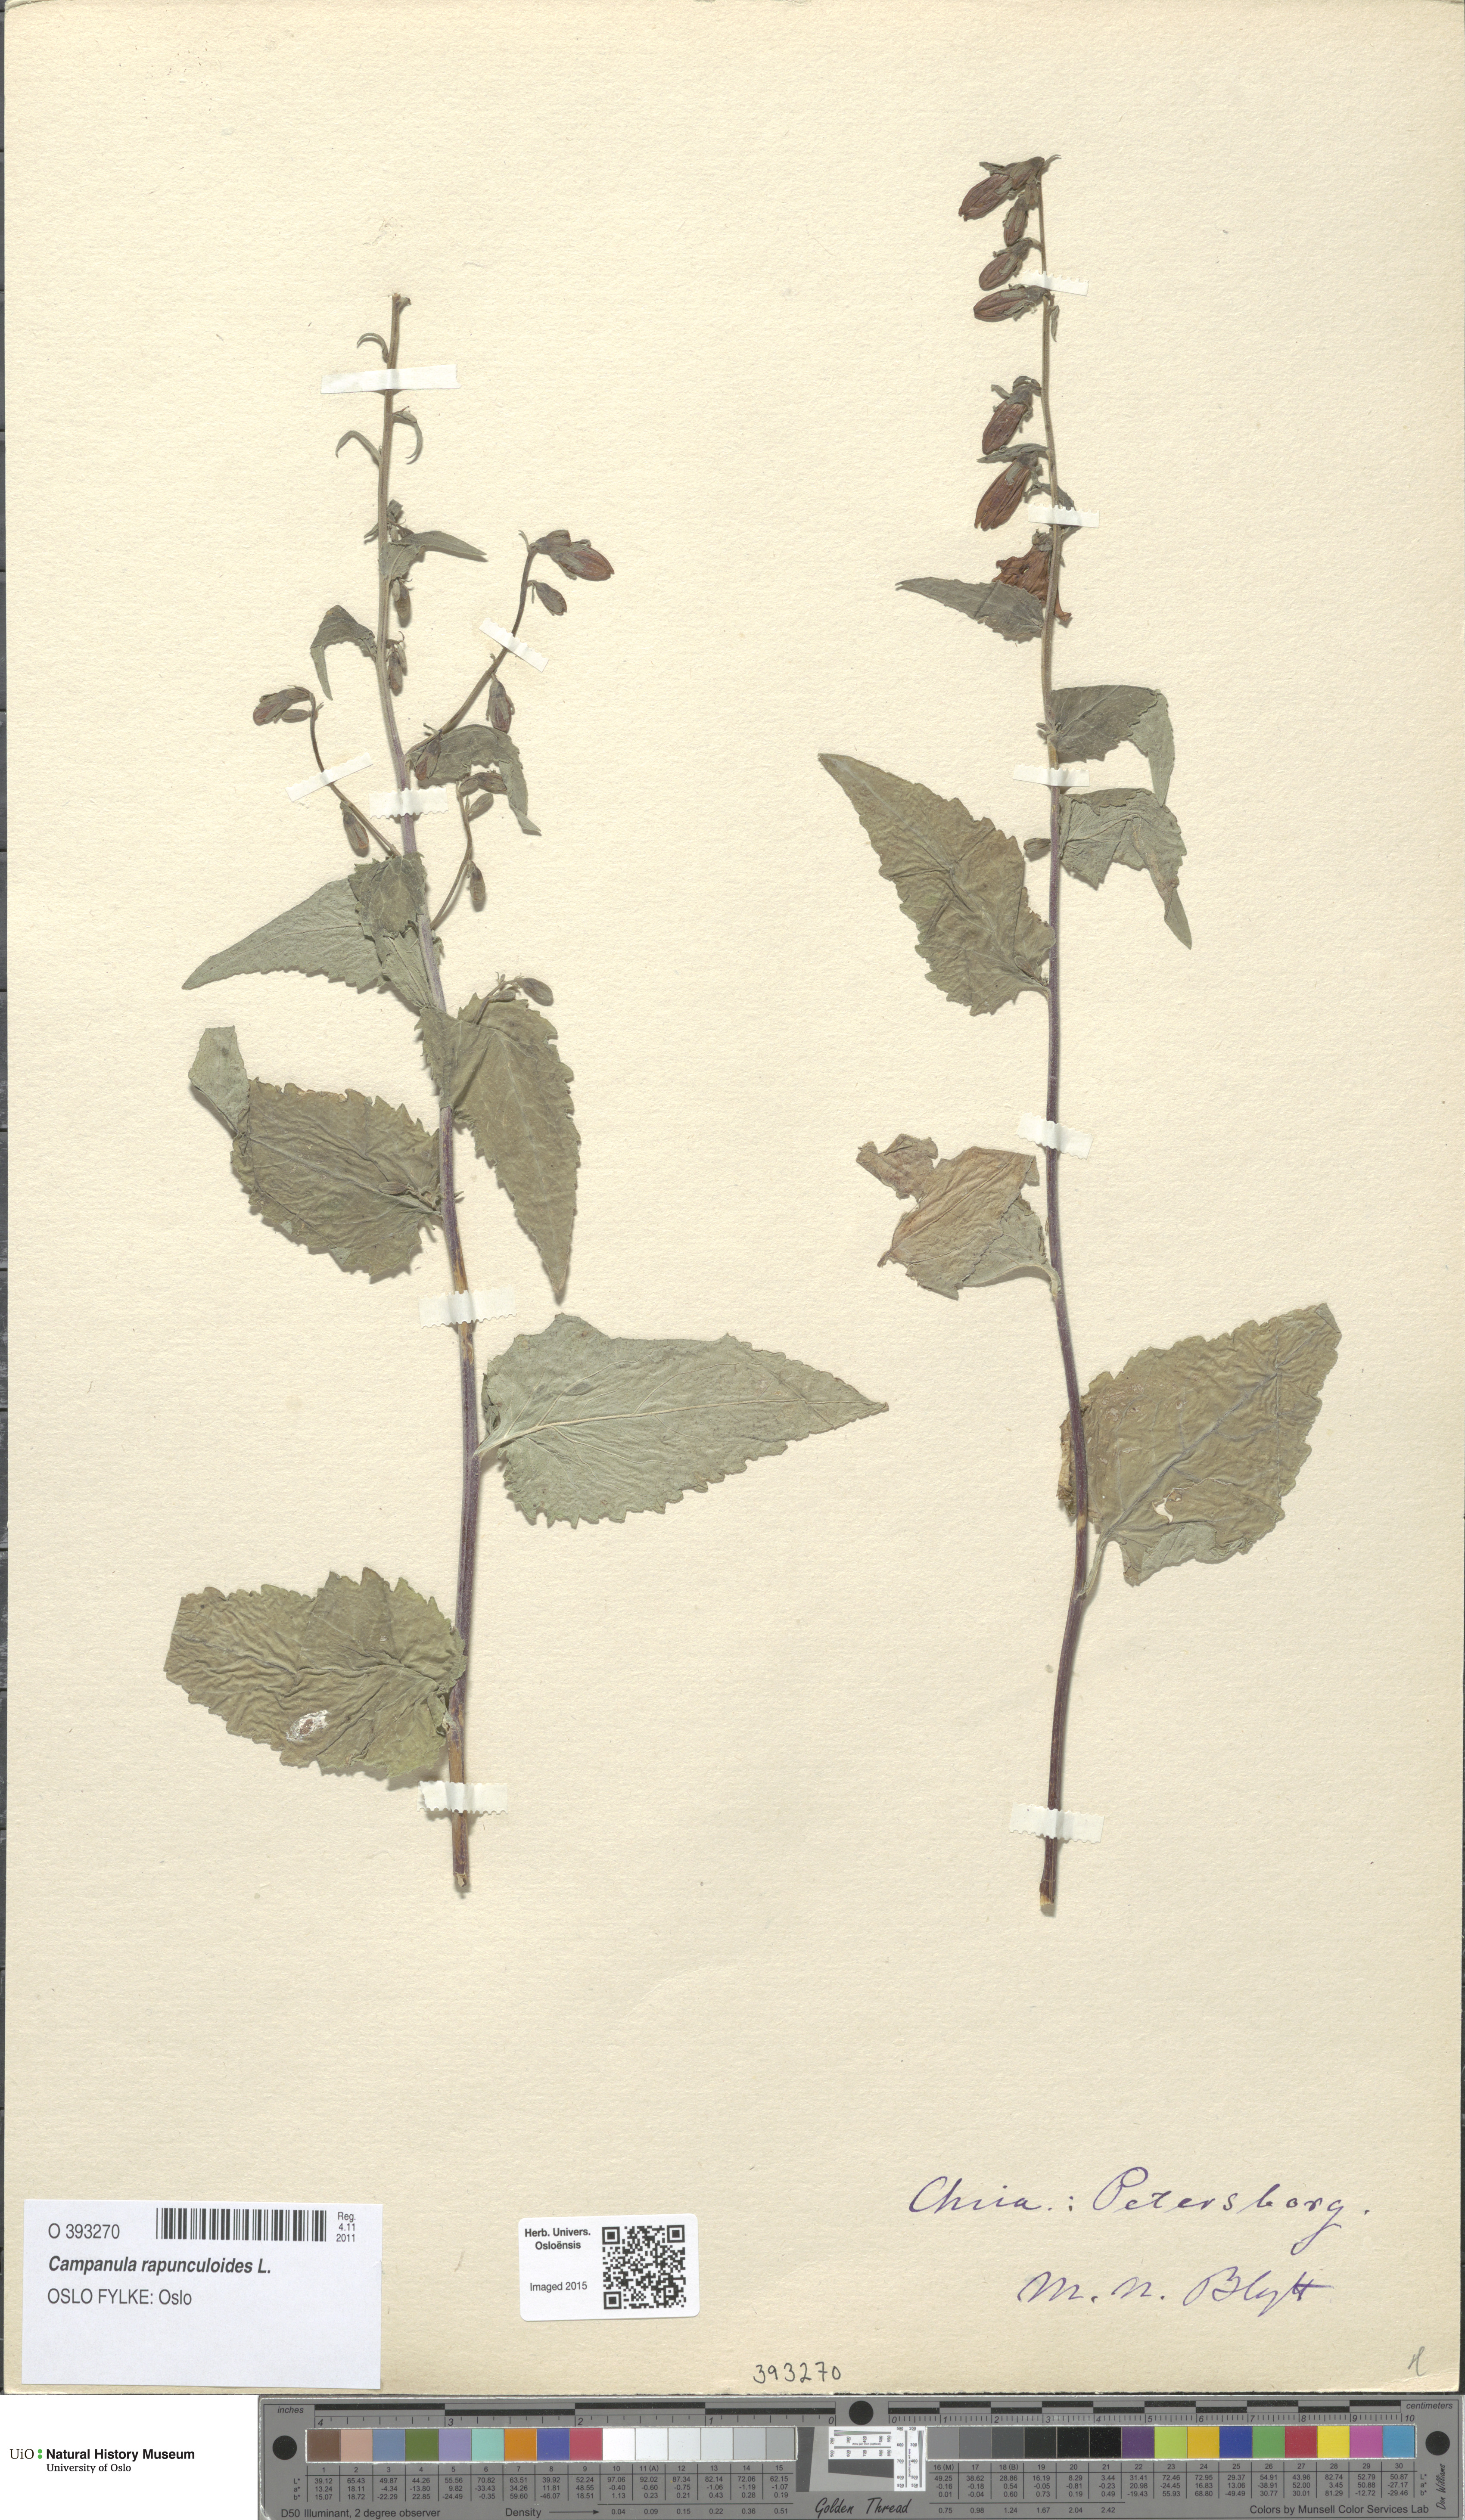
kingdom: Plantae
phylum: Tracheophyta
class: Magnoliopsida
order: Asterales
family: Campanulaceae
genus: Campanula
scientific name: Campanula rapunculoides
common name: Creeping bellflower
